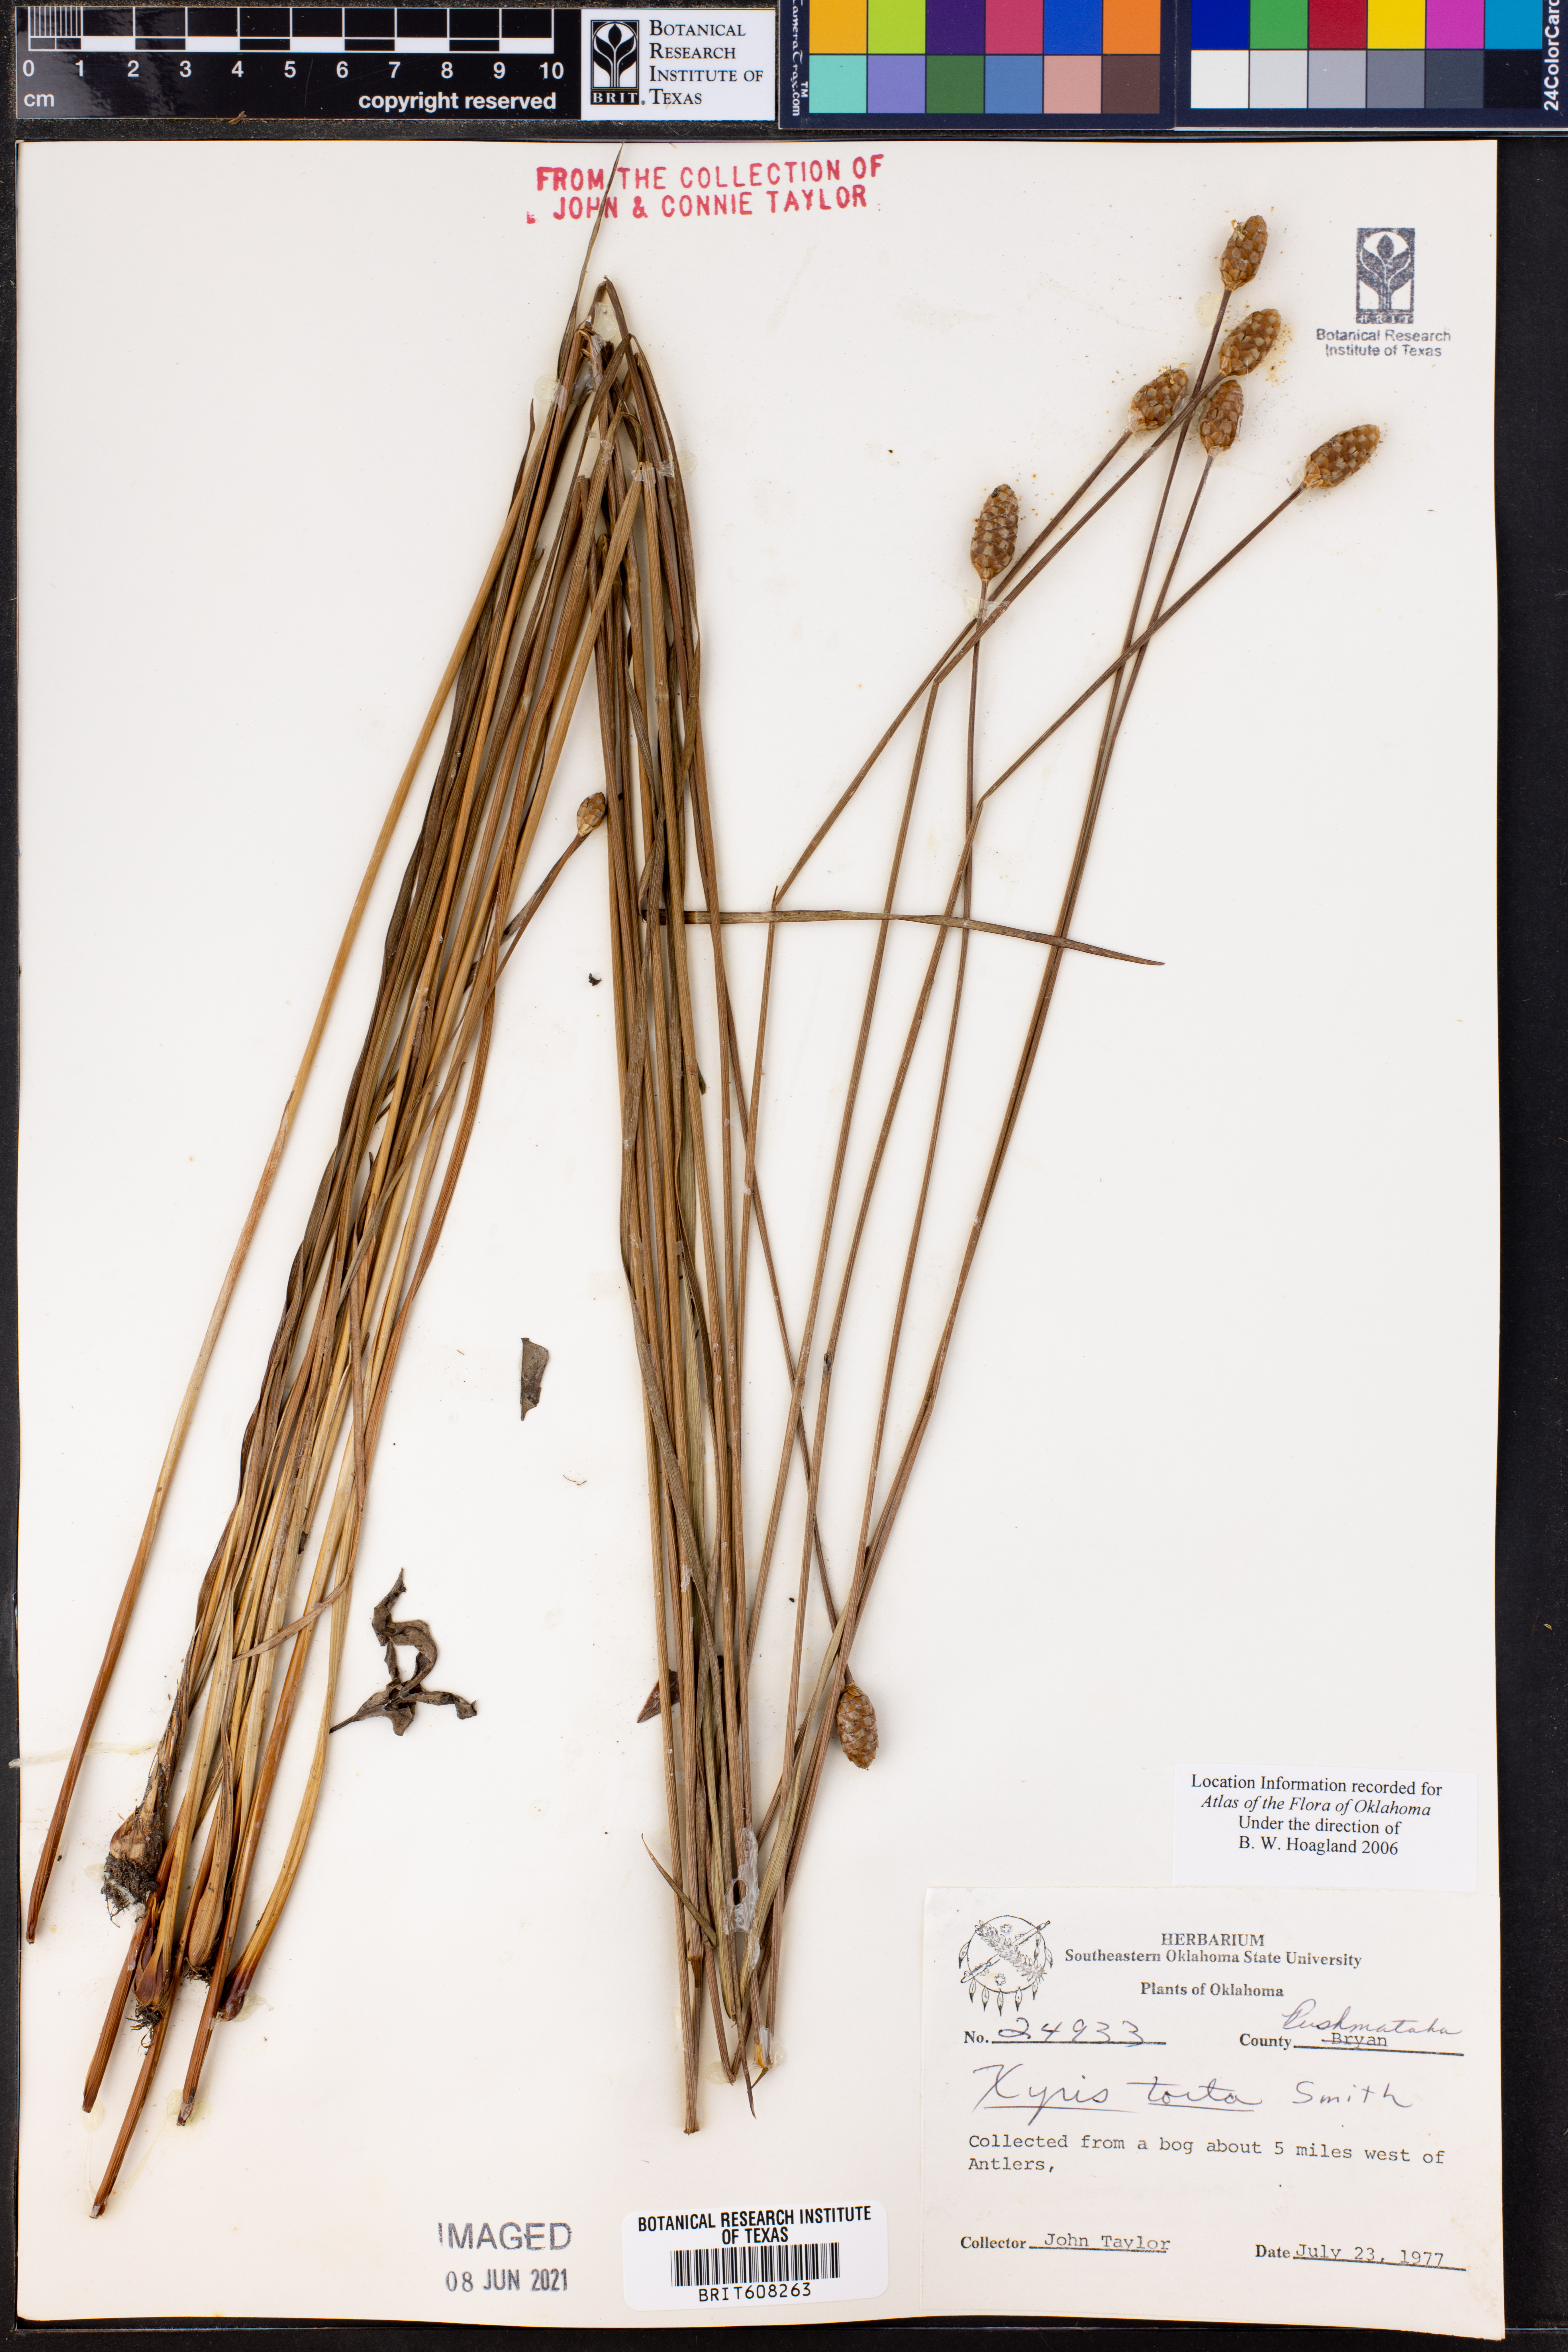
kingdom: Plantae
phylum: Tracheophyta
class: Liliopsida
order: Poales
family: Xyridaceae
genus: Xyris
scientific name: Xyris torta
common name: Common yelloweyed grass
